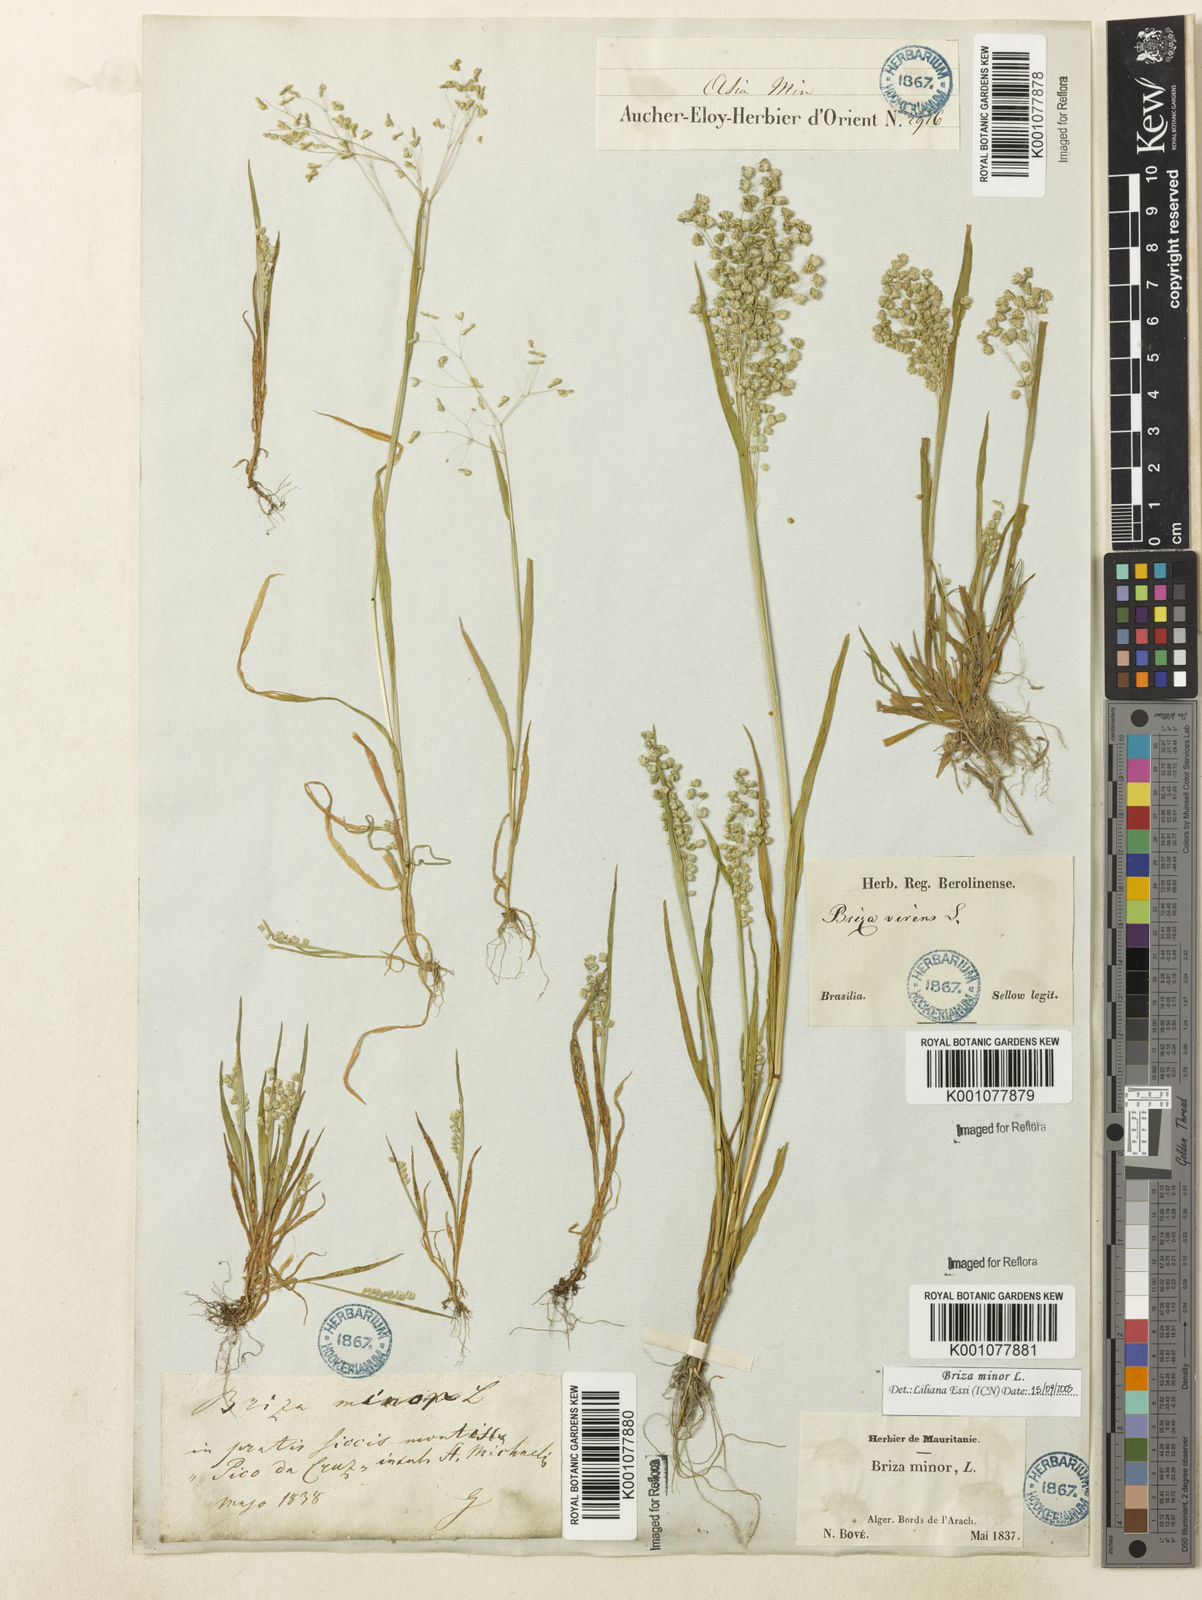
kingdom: Plantae
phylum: Tracheophyta
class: Liliopsida
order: Poales
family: Poaceae
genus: Briza
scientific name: Briza minor
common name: Lesser quaking-grass
